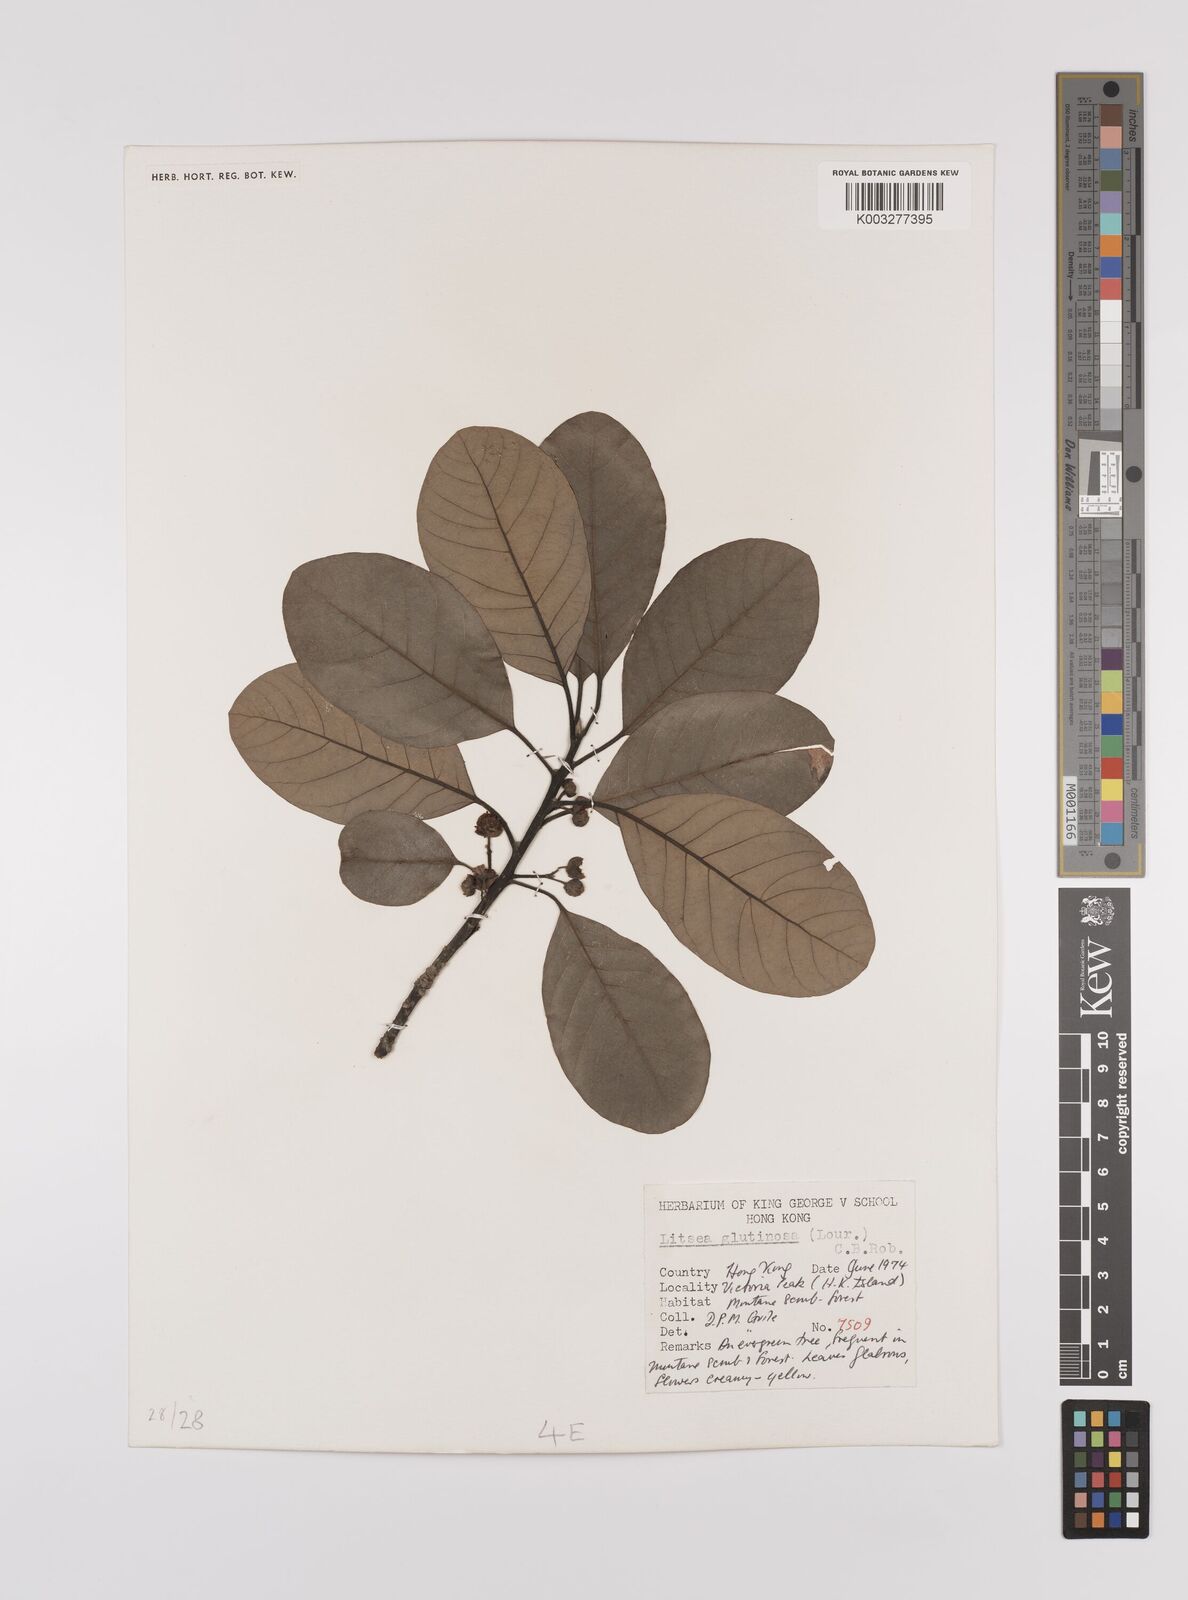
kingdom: Plantae
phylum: Tracheophyta
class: Magnoliopsida
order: Laurales
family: Lauraceae
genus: Litsea
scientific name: Litsea glutinosa
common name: Indian-laurel
